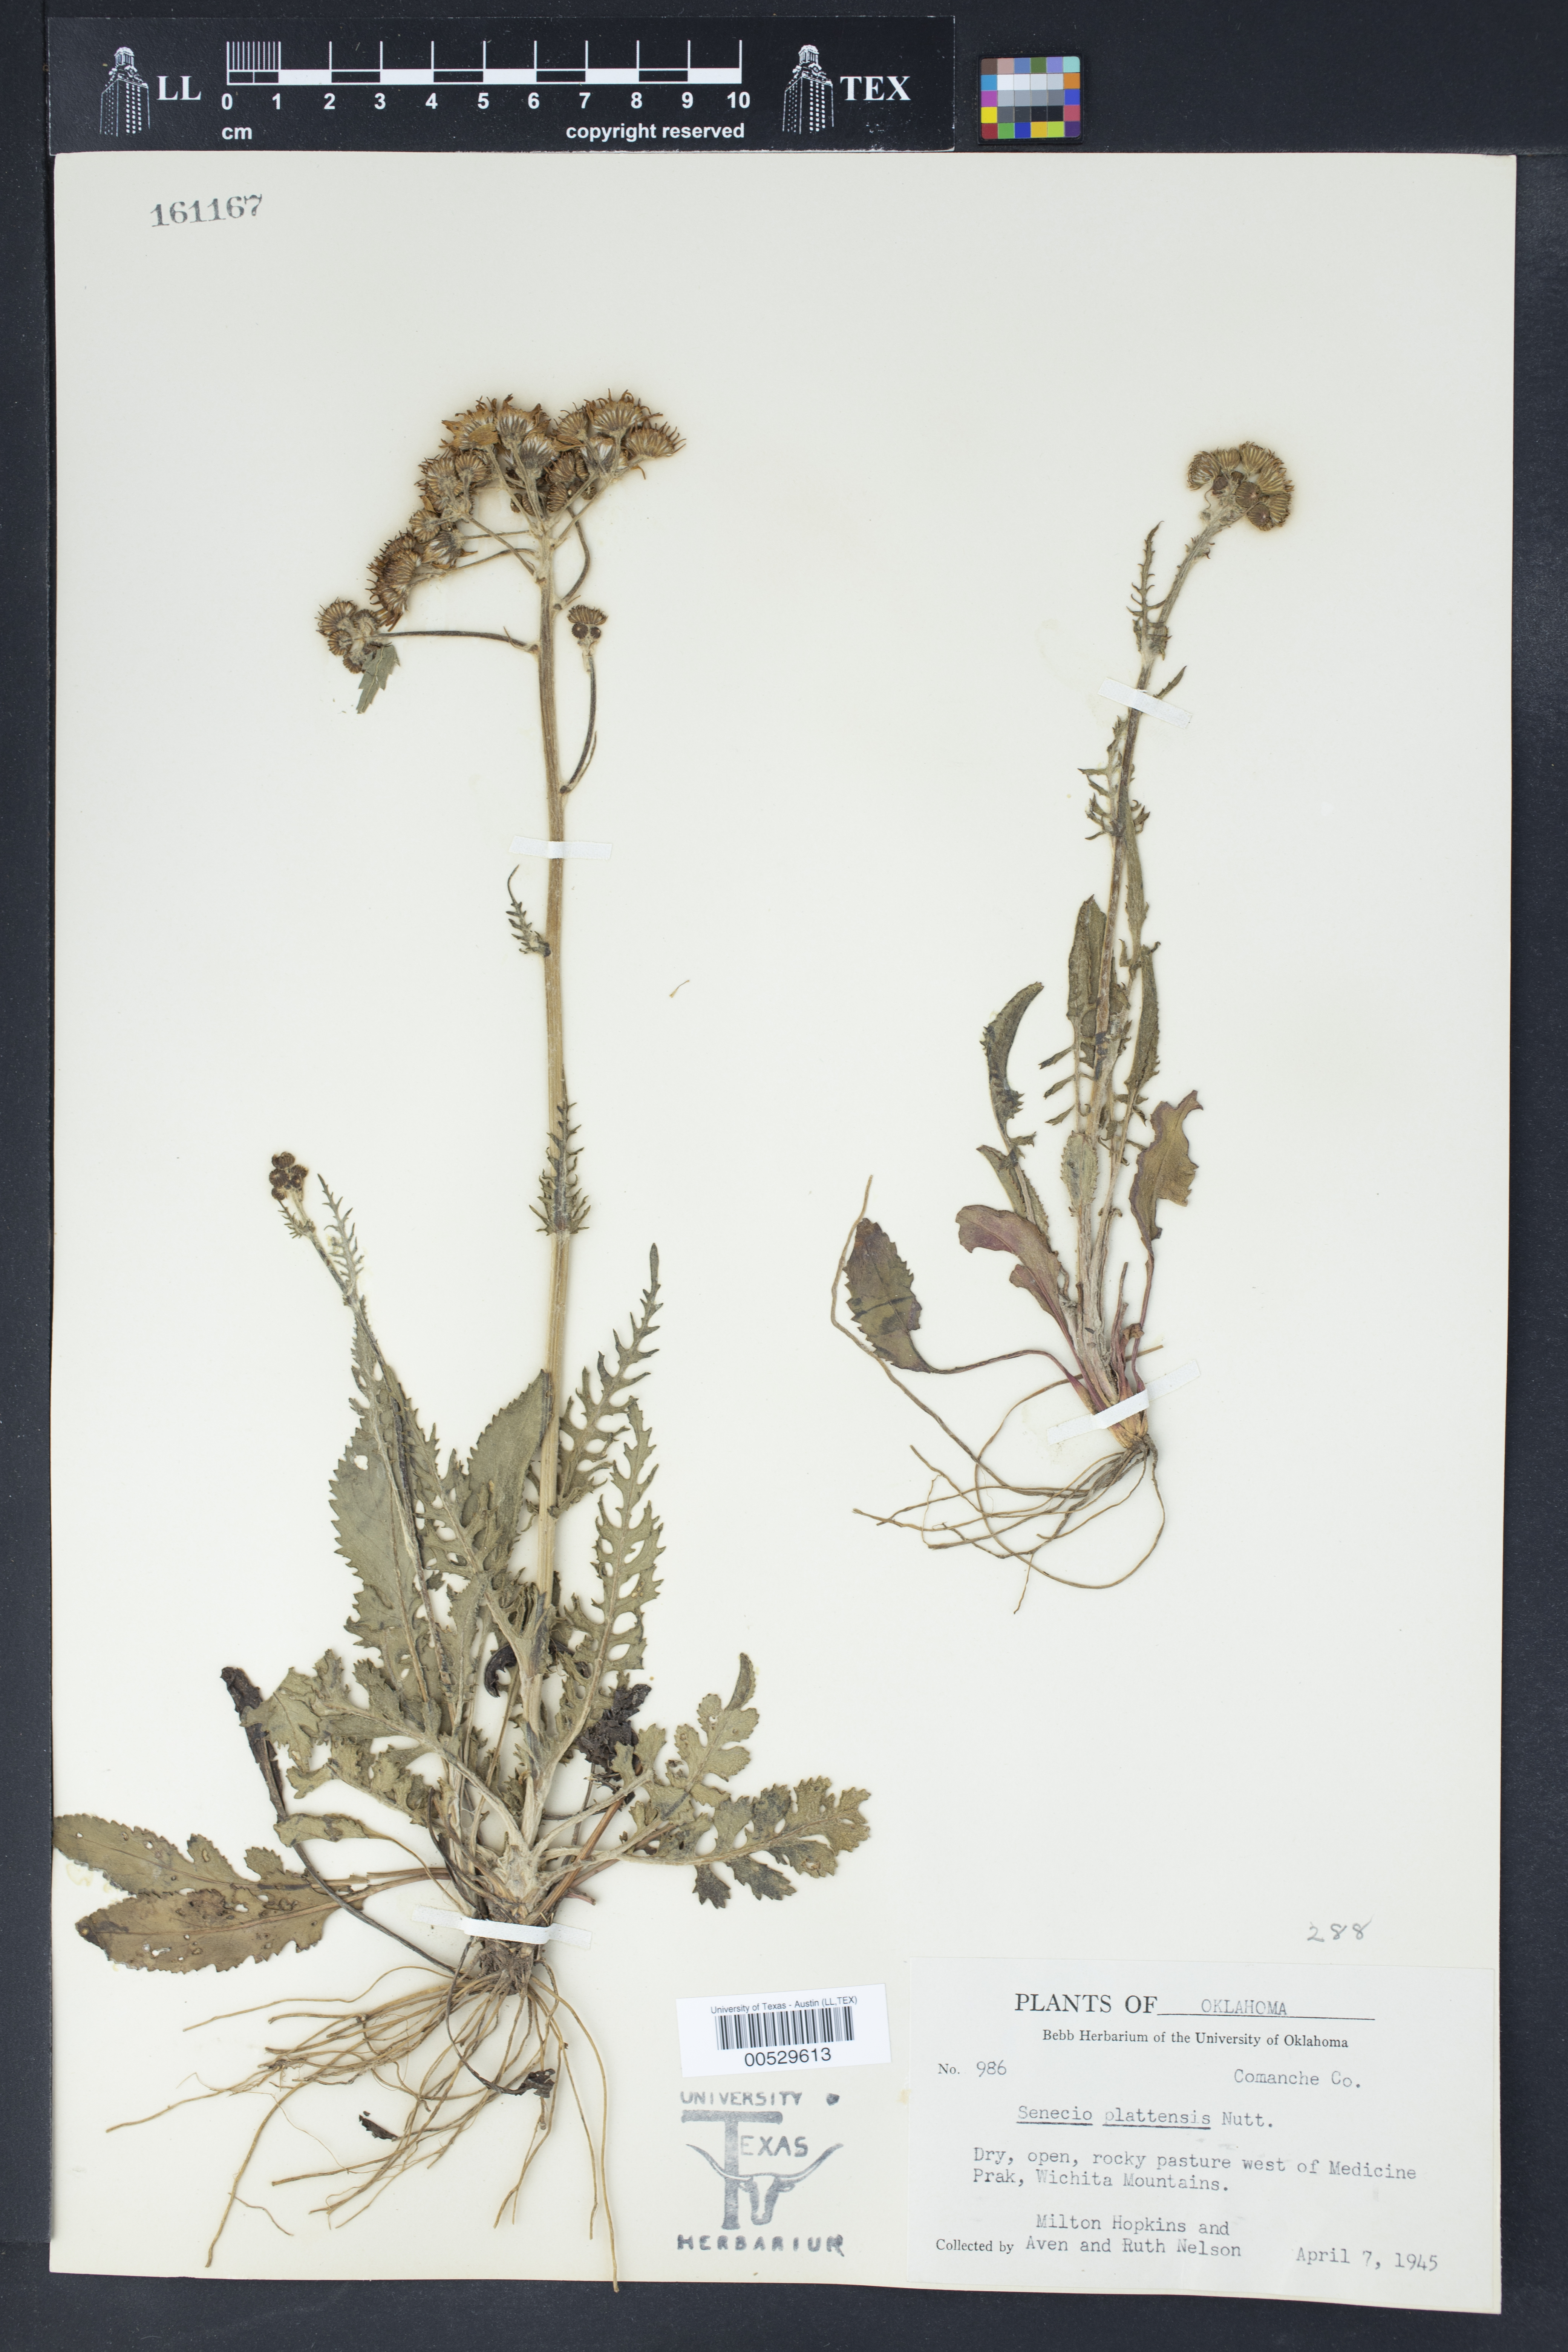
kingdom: Plantae
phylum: Tracheophyta
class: Magnoliopsida
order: Asterales
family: Asteraceae
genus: Packera
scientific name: Packera plattensis
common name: Prairie groundsel
